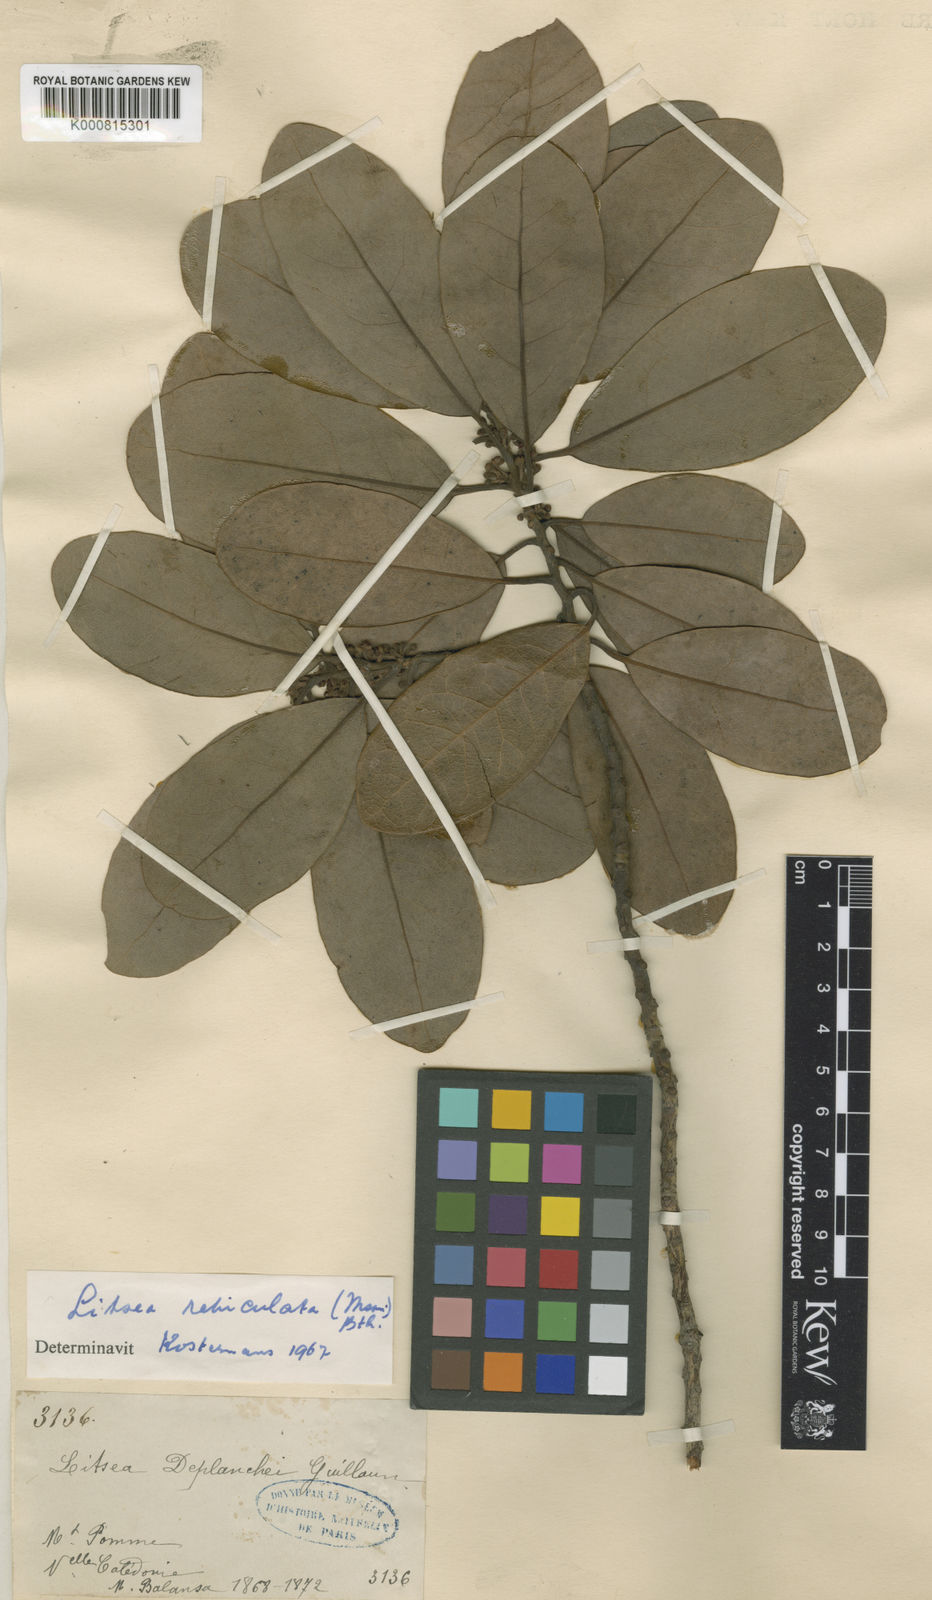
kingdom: Plantae
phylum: Tracheophyta
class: Magnoliopsida
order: Laurales
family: Lauraceae
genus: Litsea
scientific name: Litsea reticulata
